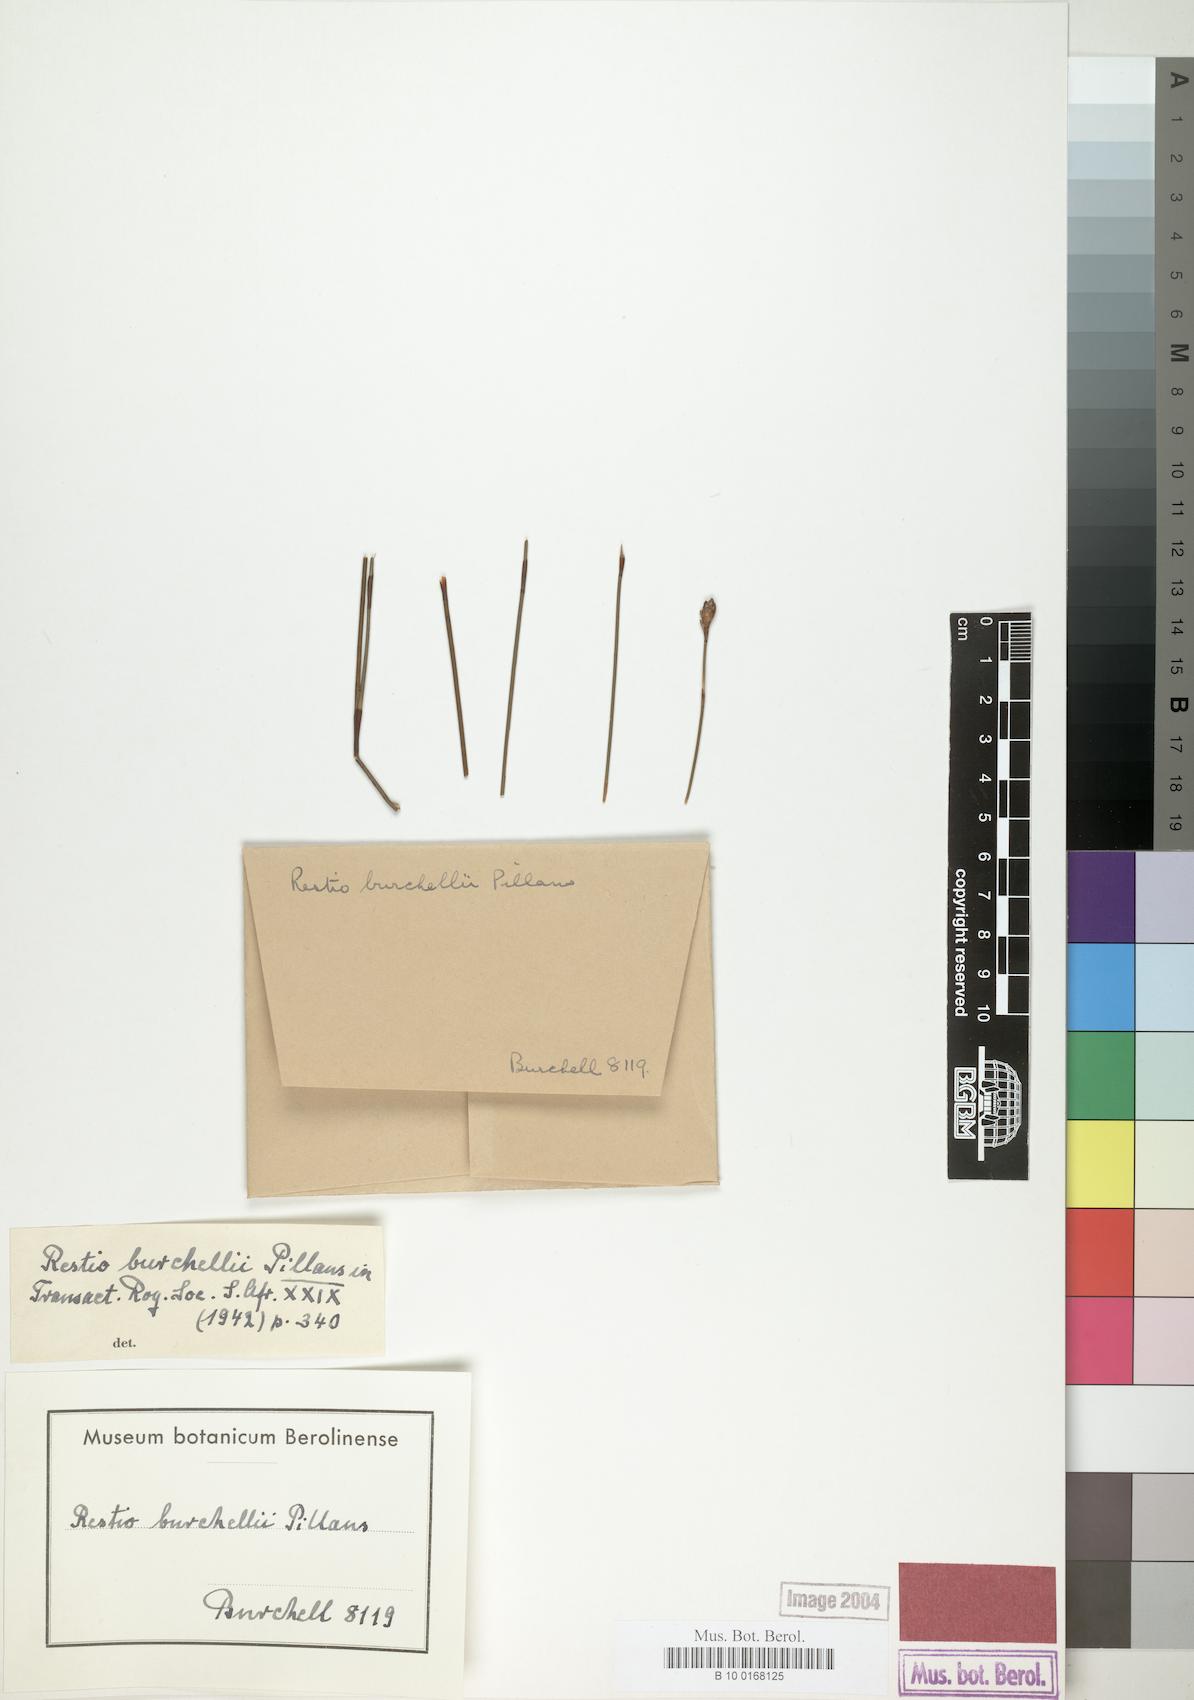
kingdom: Plantae
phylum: Tracheophyta
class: Liliopsida
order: Poales
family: Restionaceae
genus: Restio
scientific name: Restio burchellii
